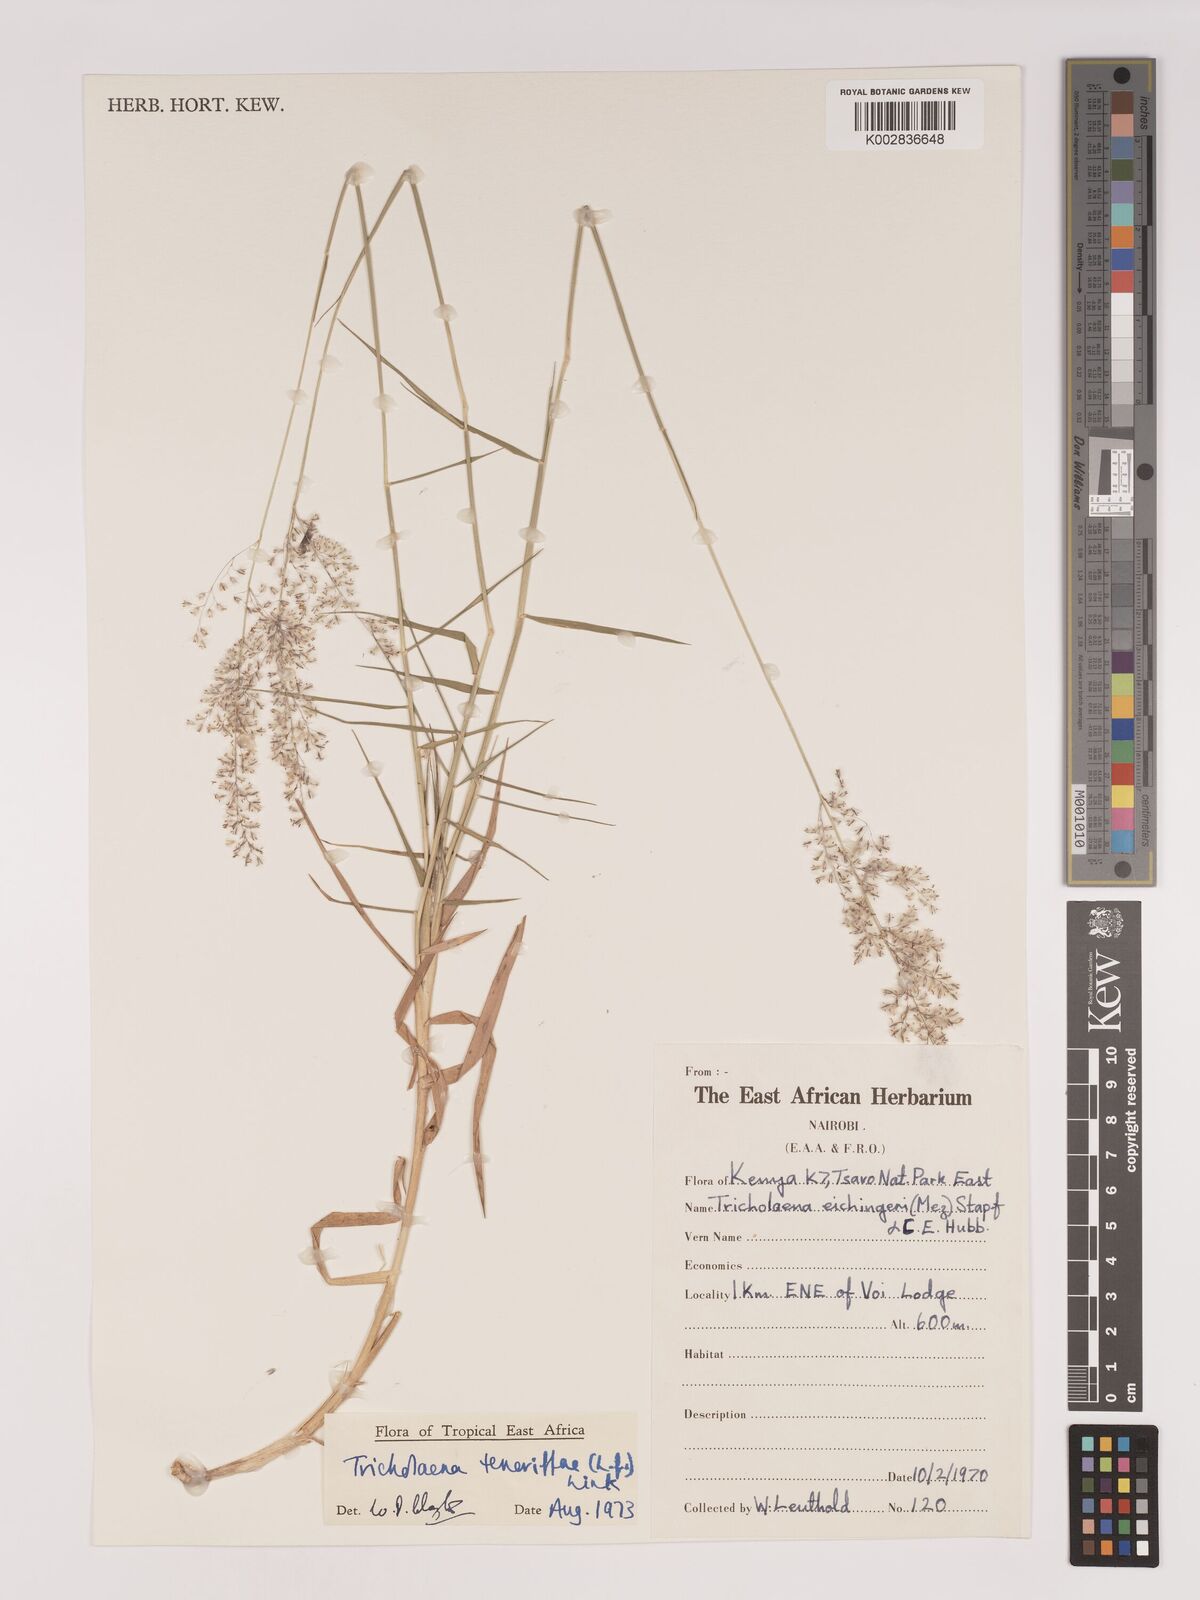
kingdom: Plantae
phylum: Tracheophyta
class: Liliopsida
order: Poales
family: Poaceae
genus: Tricholaena
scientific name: Tricholaena teneriffae
